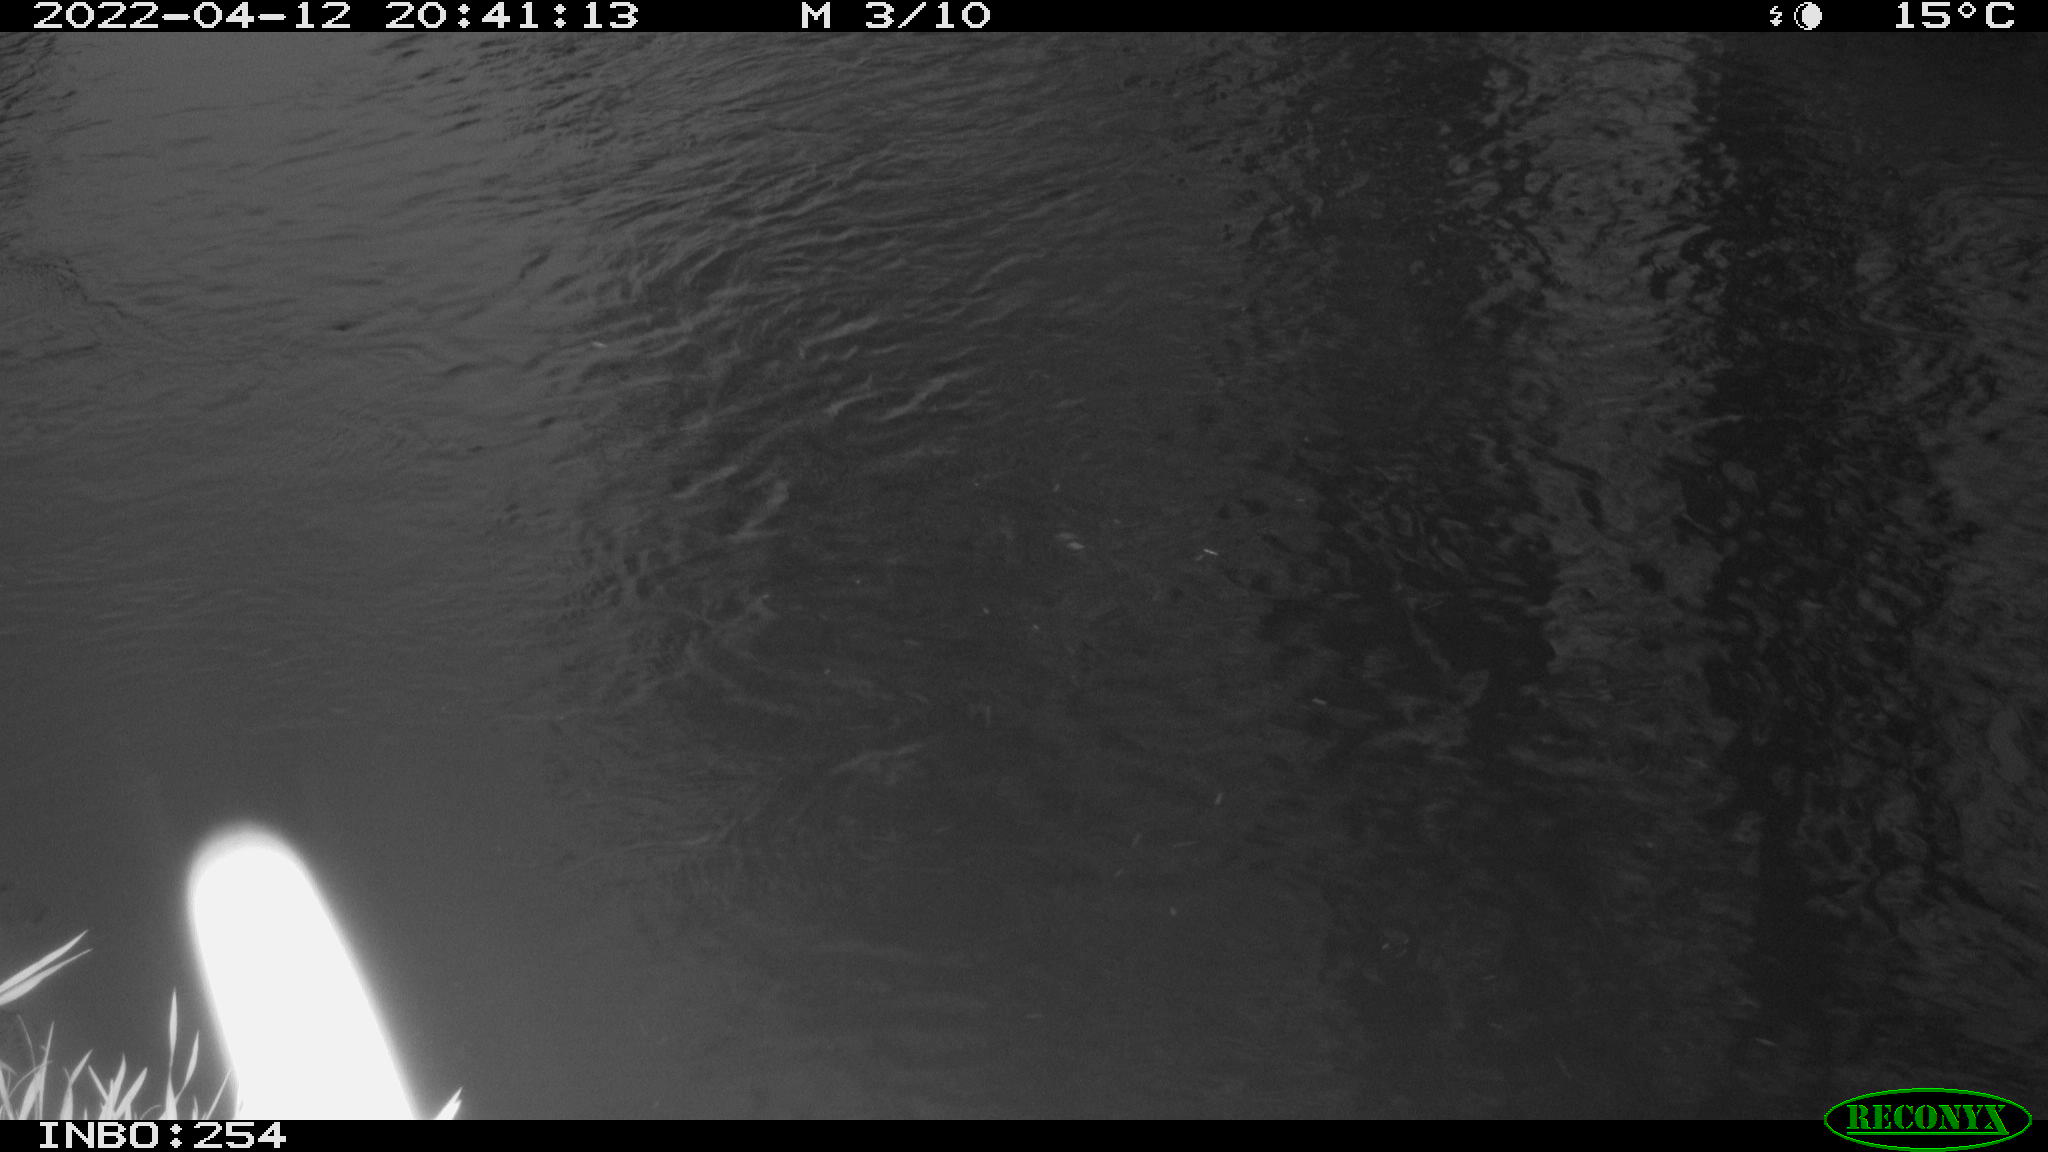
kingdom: Animalia
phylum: Chordata
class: Mammalia
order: Lagomorpha
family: Leporidae
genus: Lepus
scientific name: Lepus europaeus
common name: European hare
